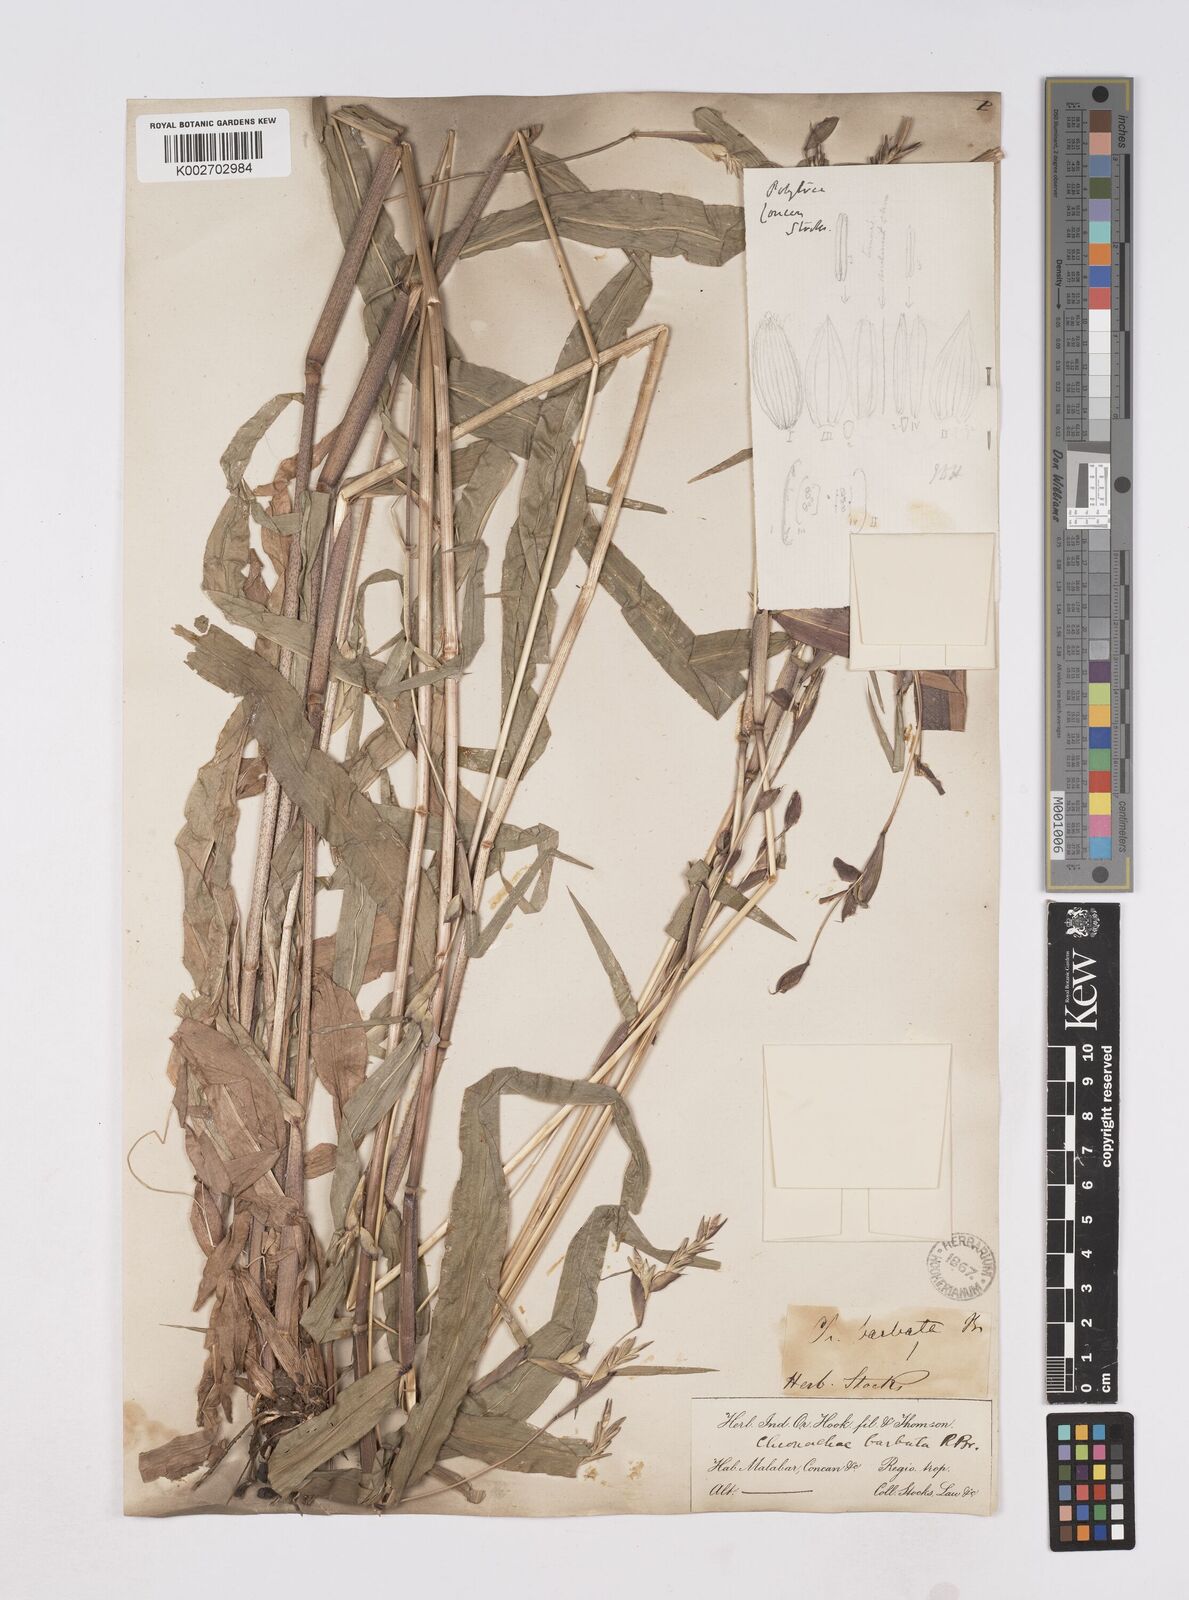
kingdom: Plantae
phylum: Tracheophyta
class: Liliopsida
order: Poales
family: Poaceae
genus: Polytoca
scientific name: Polytoca gigantea
